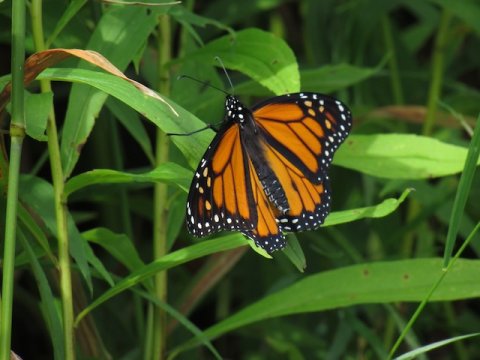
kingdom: Animalia
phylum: Arthropoda
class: Insecta
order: Lepidoptera
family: Nymphalidae
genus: Danaus
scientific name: Danaus plexippus
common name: Monarch
